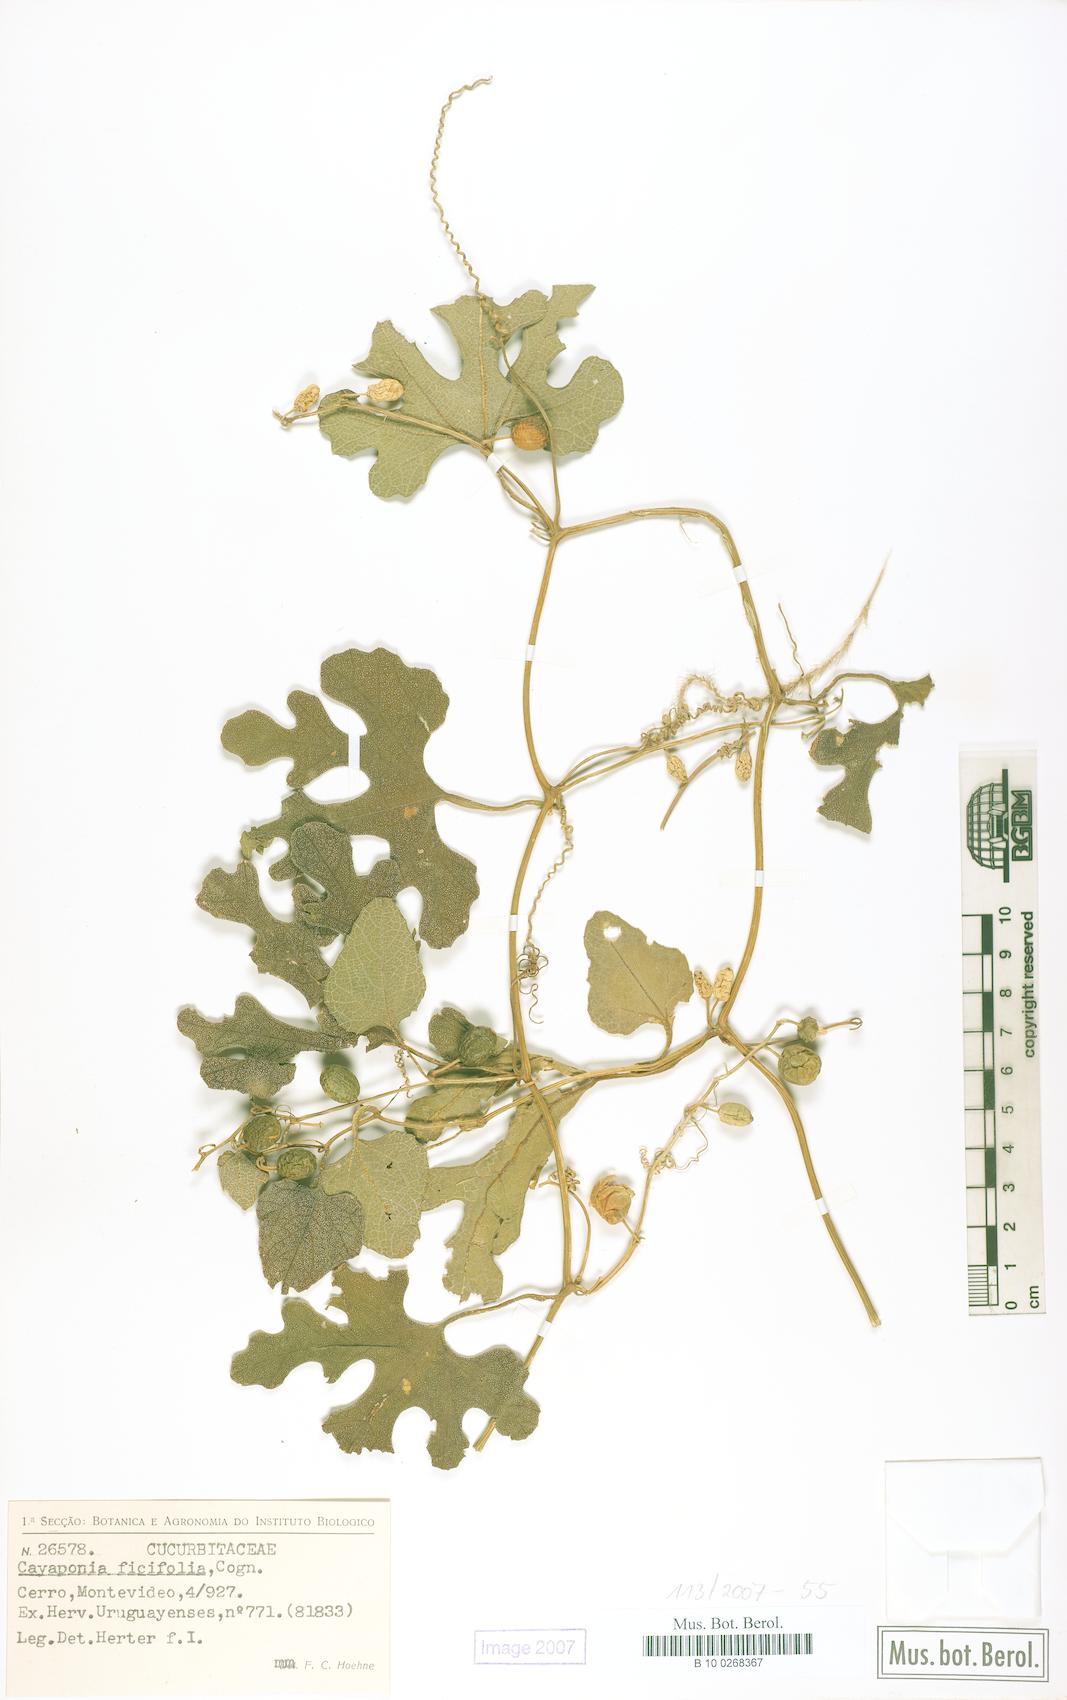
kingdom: Plantae
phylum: Tracheophyta
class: Magnoliopsida
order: Cucurbitales
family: Cucurbitaceae
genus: Cayaponia
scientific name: Cayaponia bonariensis
